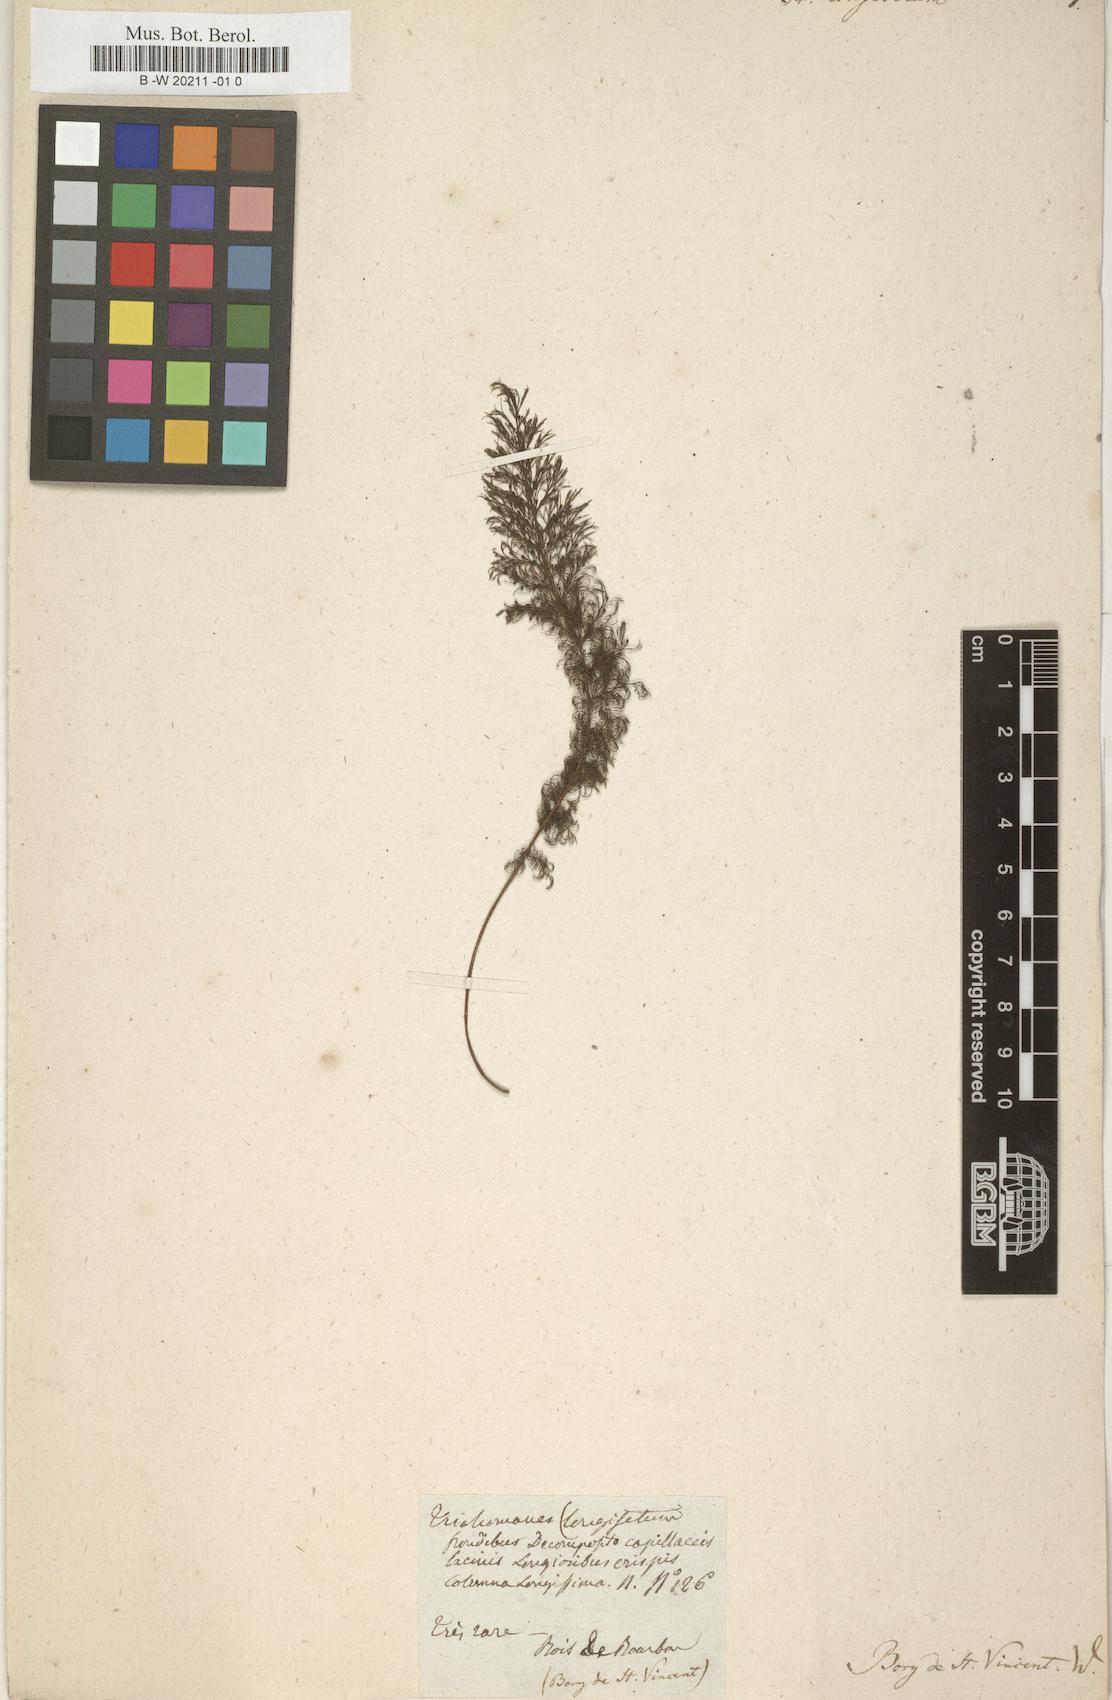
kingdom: Plantae
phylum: Tracheophyta
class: Polypodiopsida
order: Hymenophyllales
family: Hymenophyllaceae
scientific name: Hymenophyllaceae
